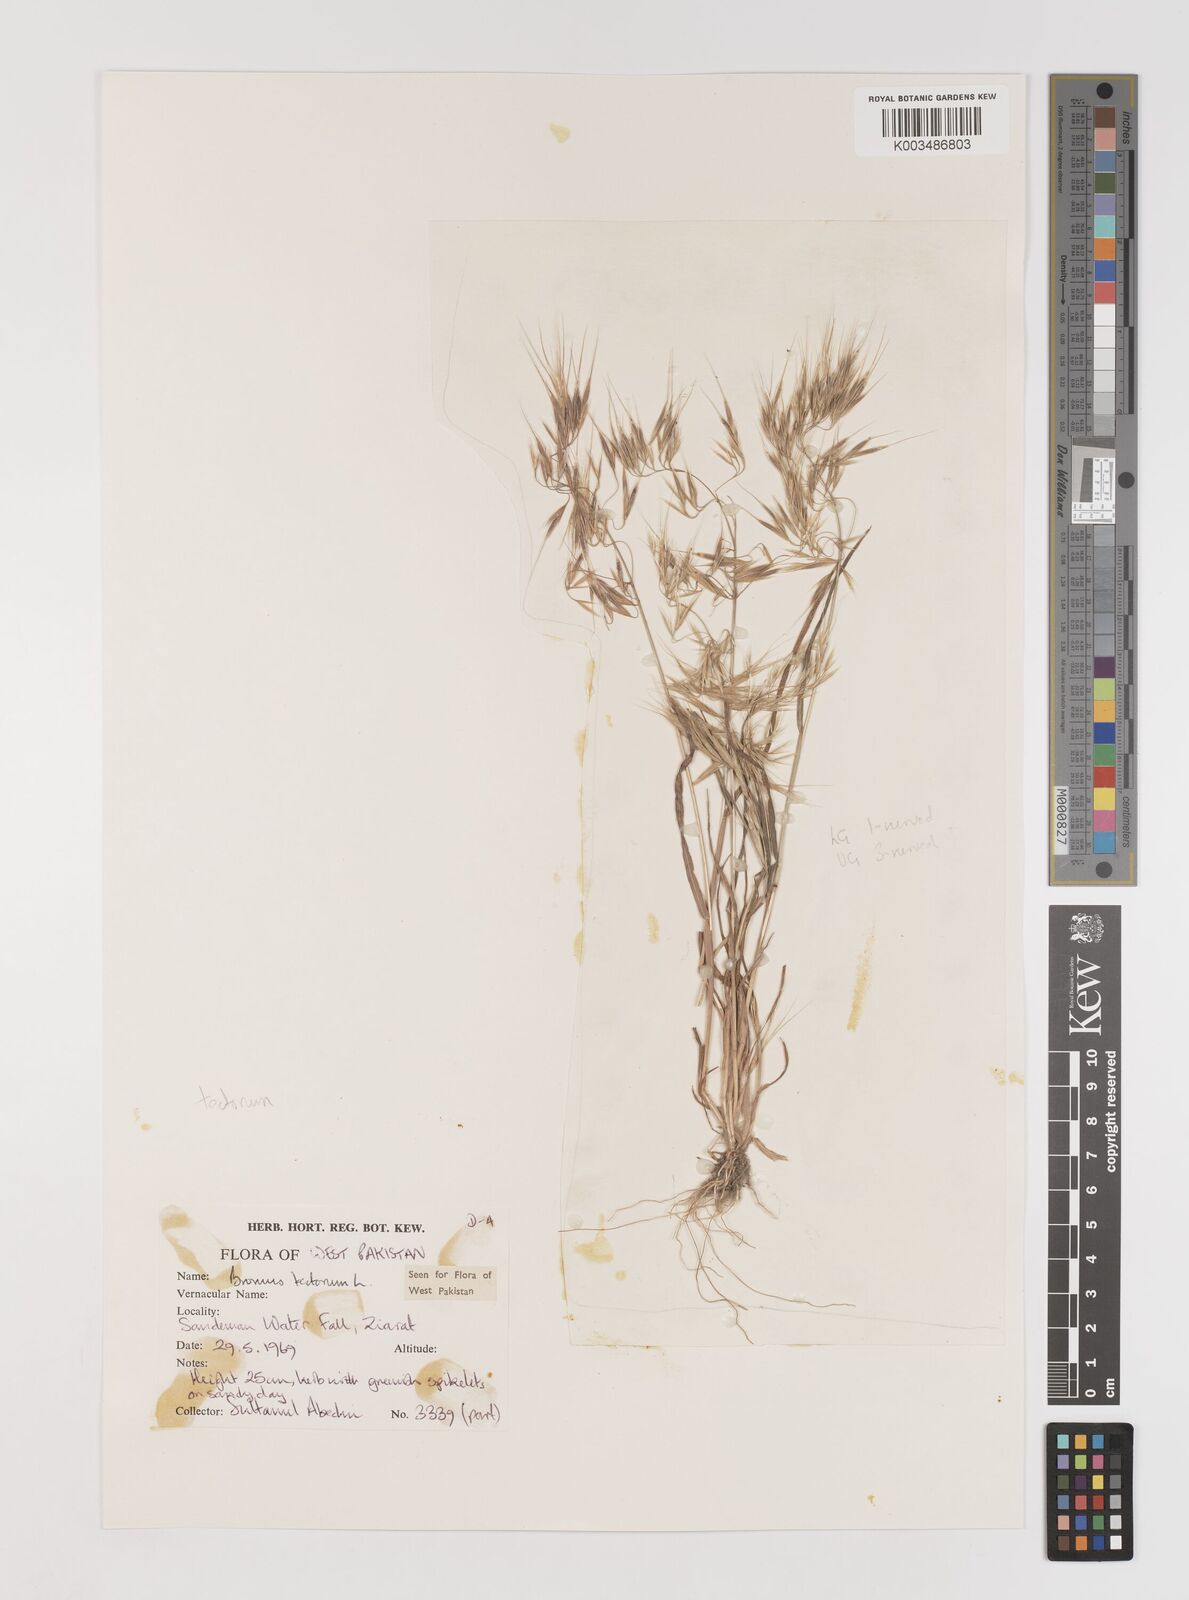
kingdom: Plantae
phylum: Tracheophyta
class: Liliopsida
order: Poales
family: Poaceae
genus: Bromus
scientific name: Bromus tectorum
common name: Cheatgrass
